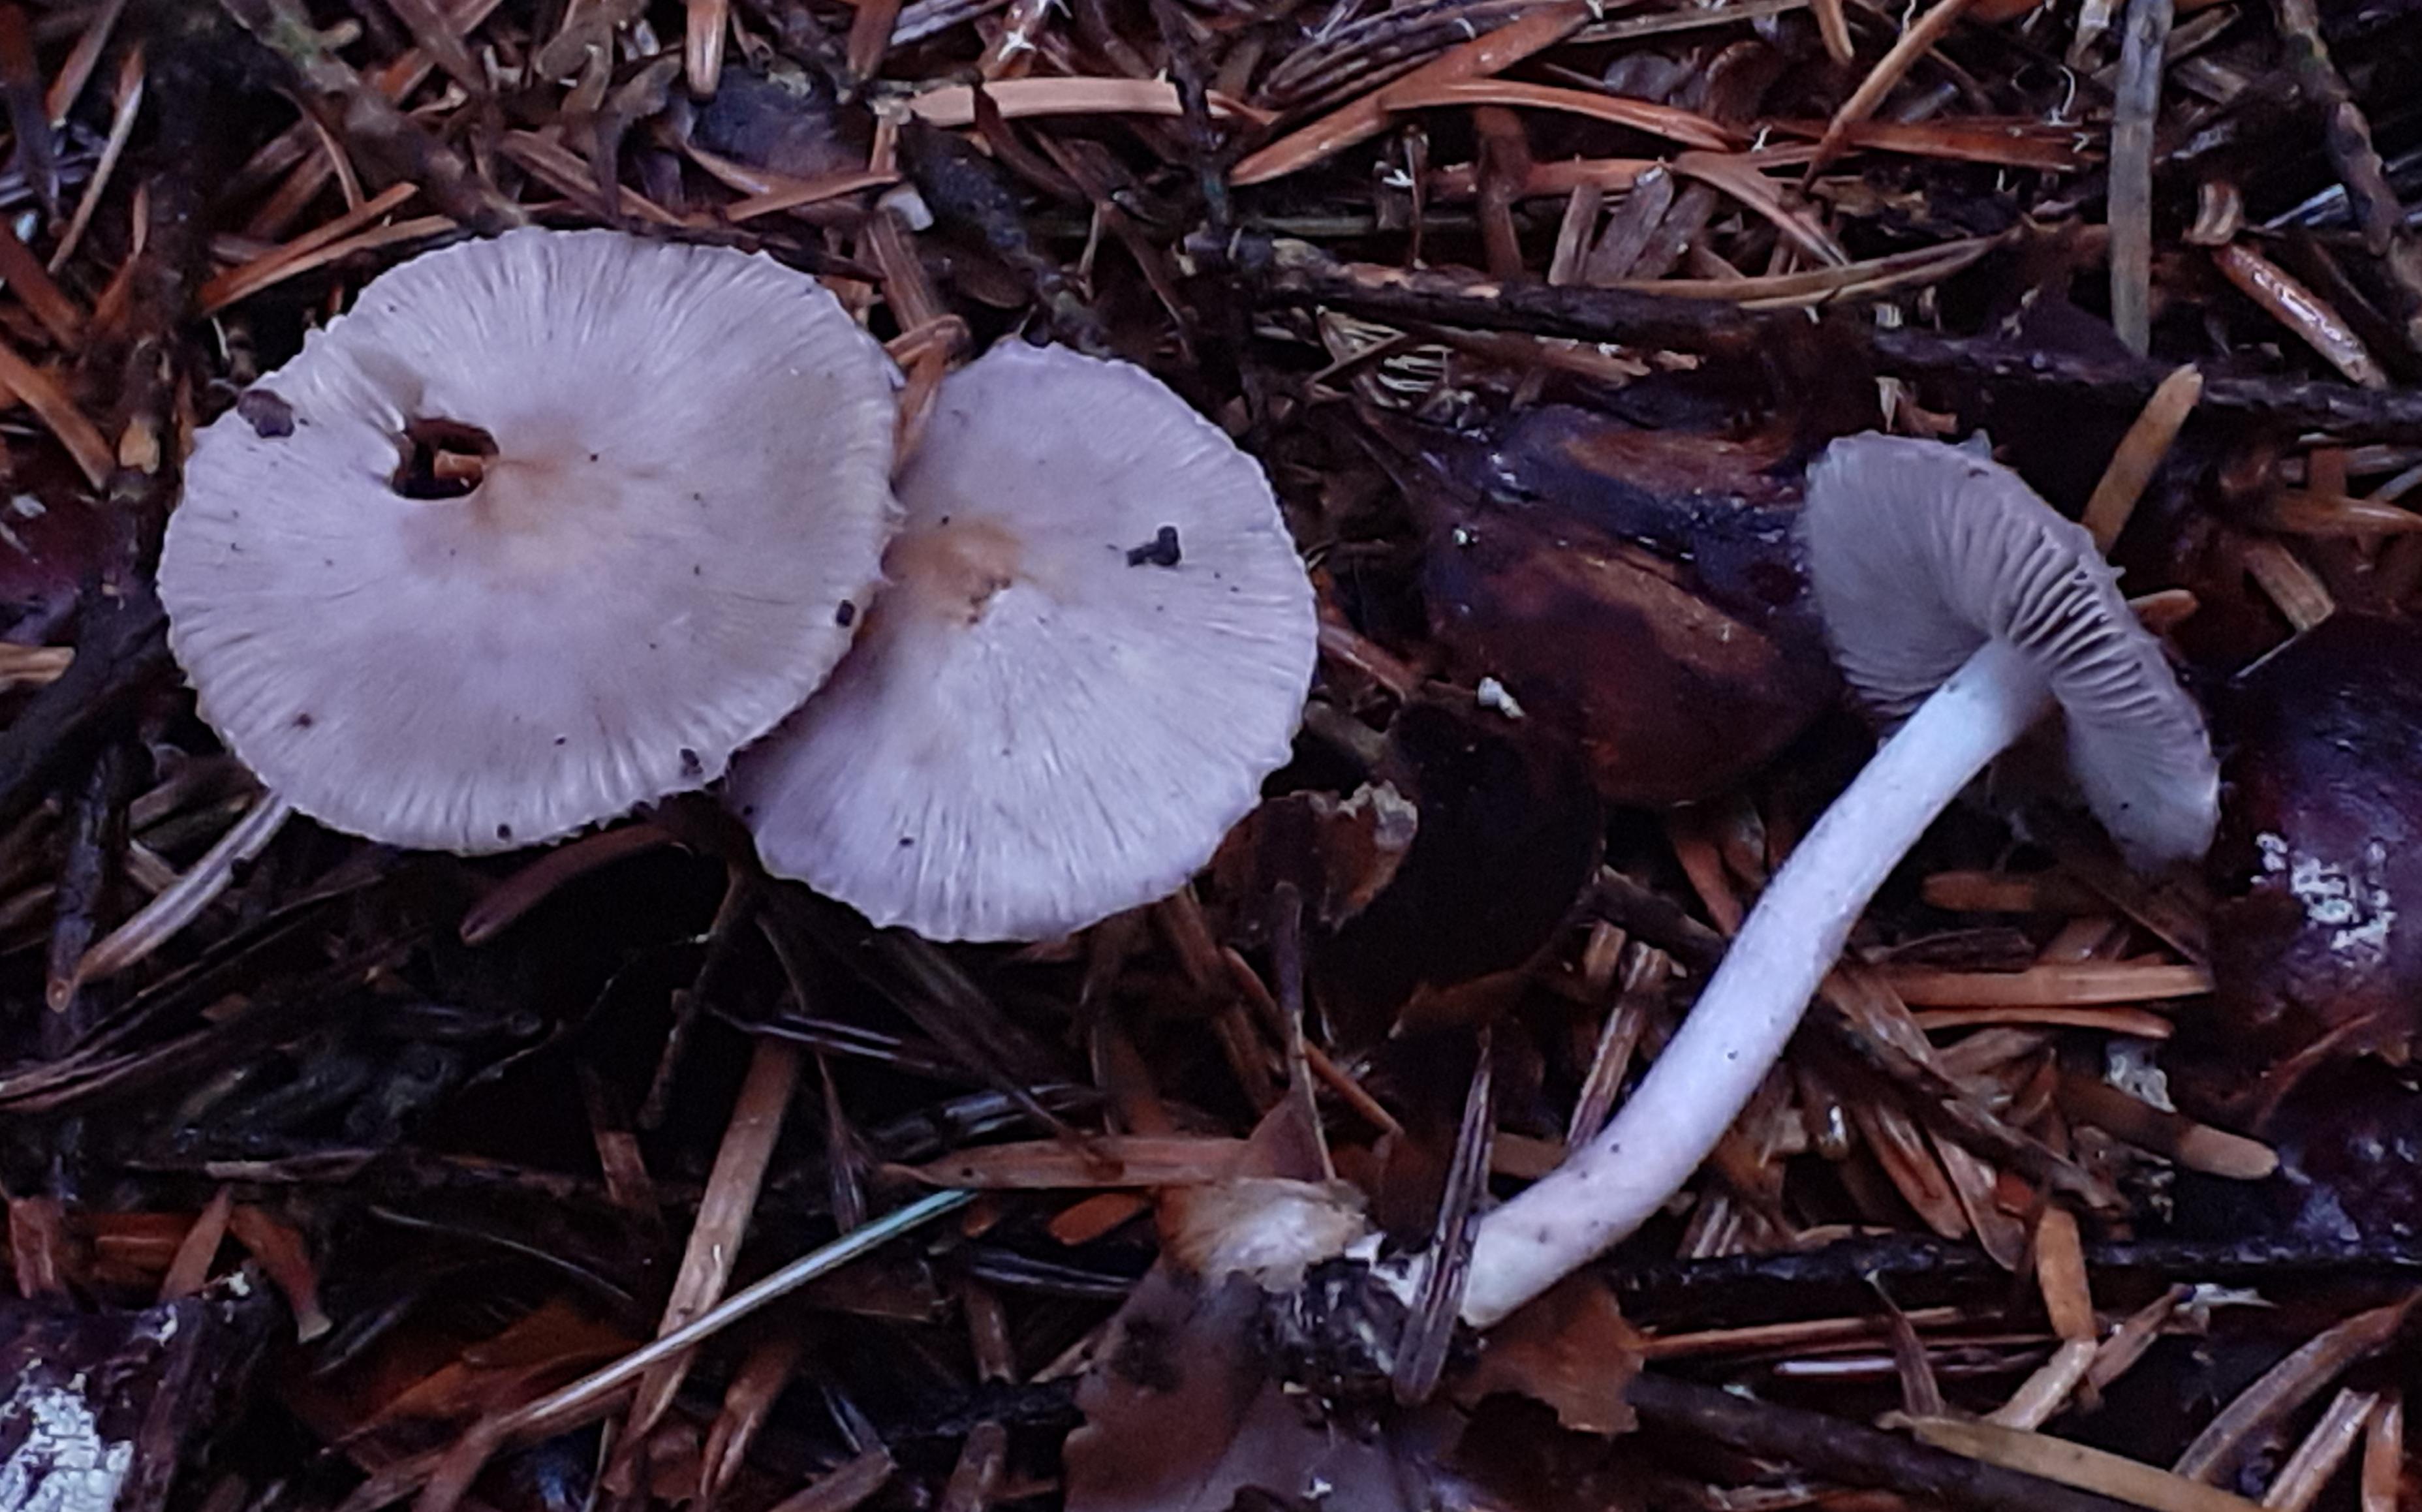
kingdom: Fungi
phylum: Basidiomycota
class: Agaricomycetes
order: Agaricales
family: Inocybaceae
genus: Inocybe
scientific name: Inocybe geophylla
